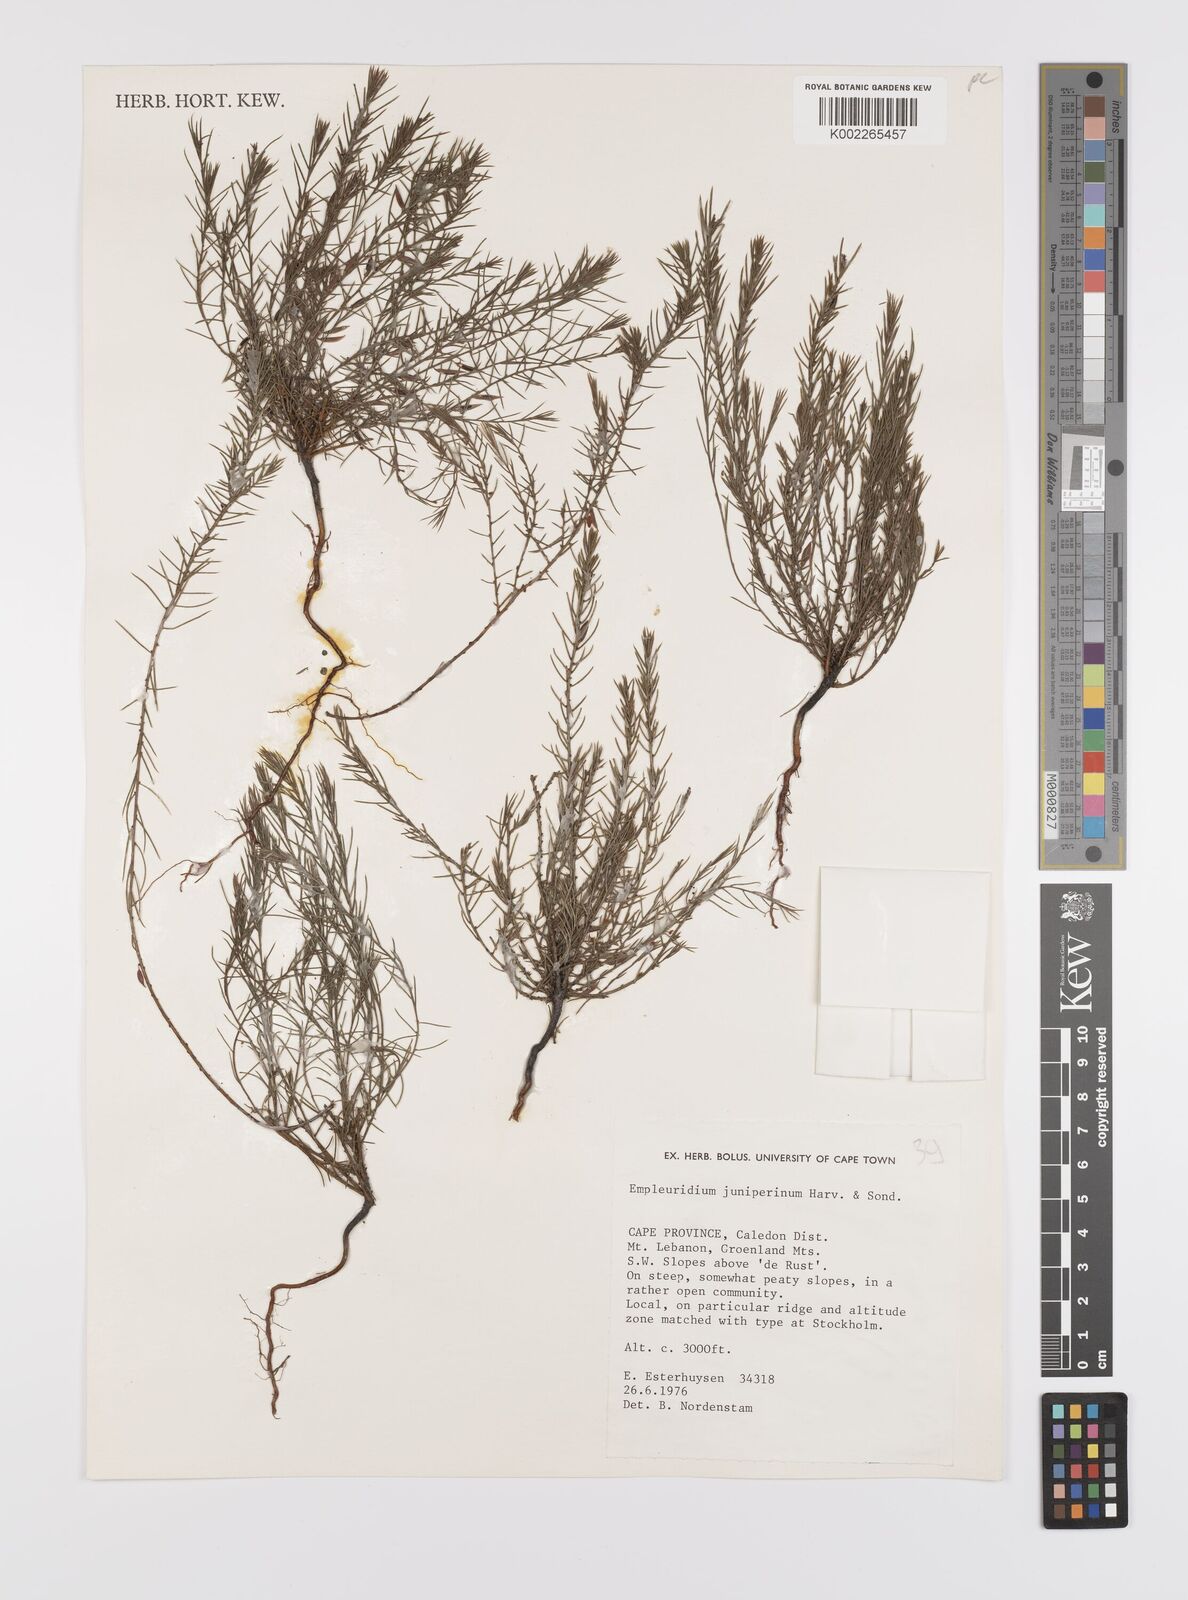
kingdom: Plantae
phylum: Tracheophyta
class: Magnoliopsida
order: Celastrales
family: Celastraceae
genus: Empleuridium
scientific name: Empleuridium juniperinum
